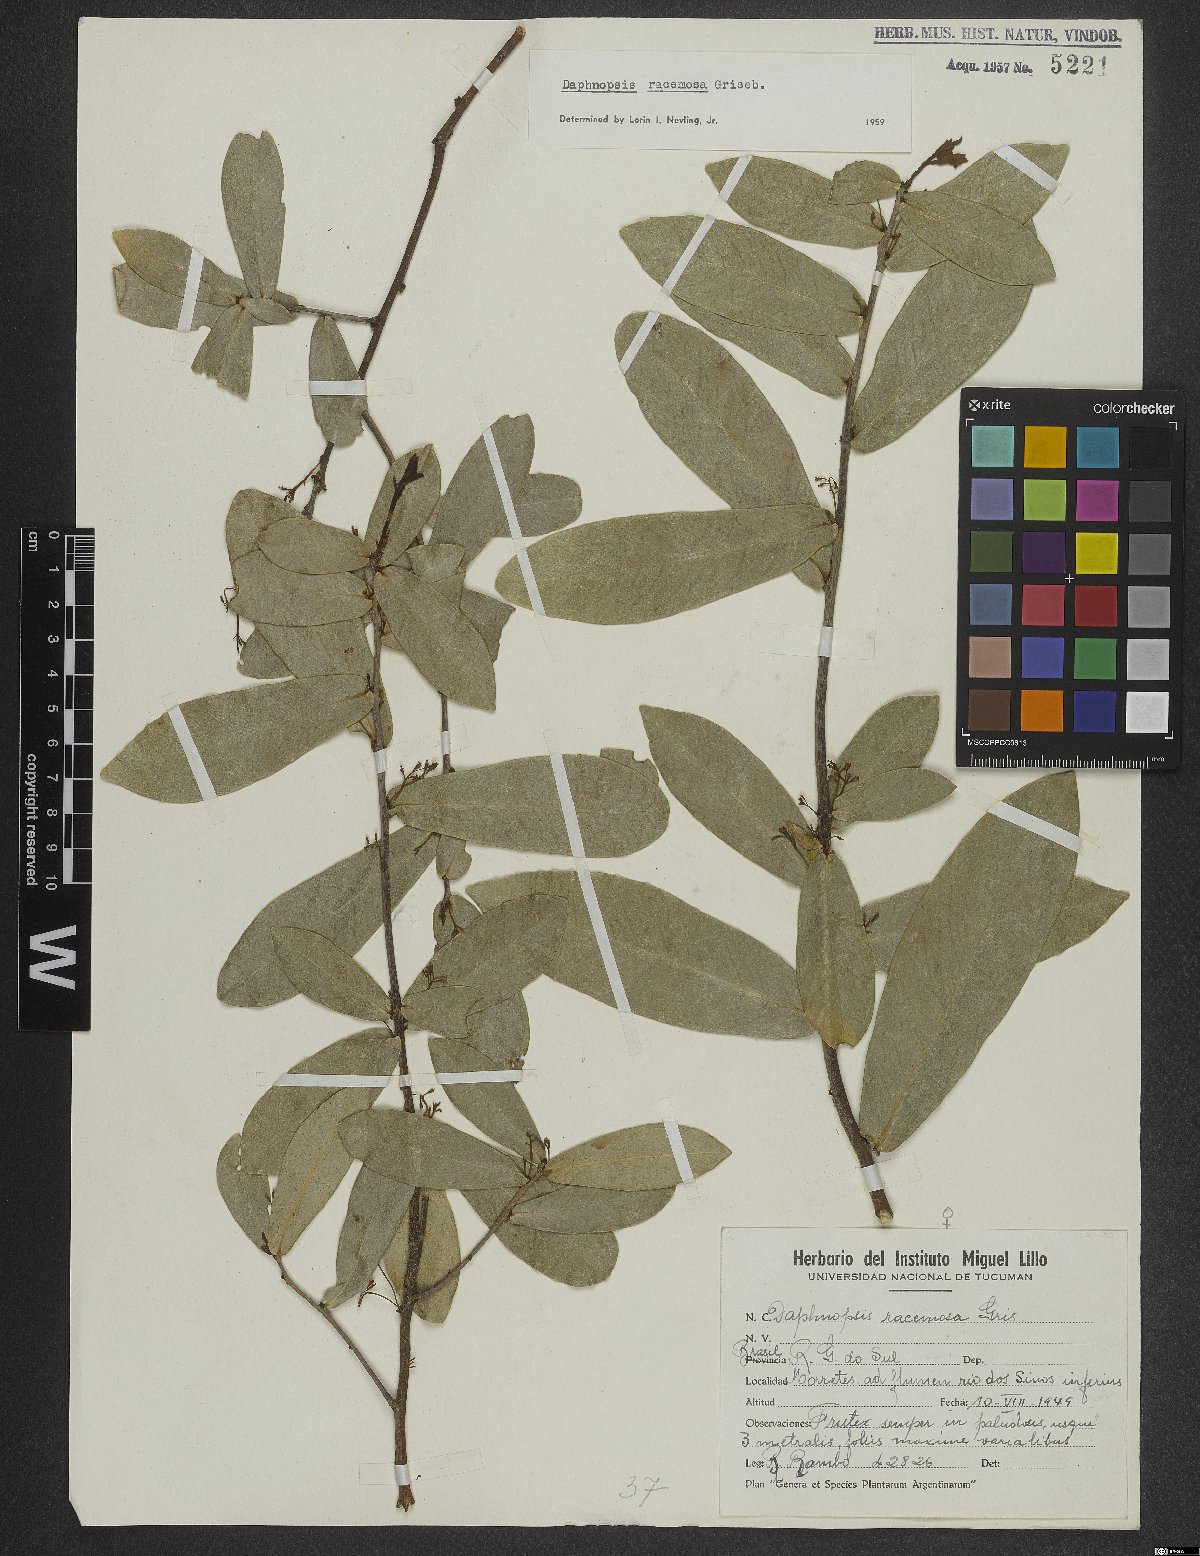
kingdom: Plantae
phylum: Tracheophyta
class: Magnoliopsida
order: Malvales
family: Thymelaeaceae
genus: Daphnopsis
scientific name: Daphnopsis racemosa
